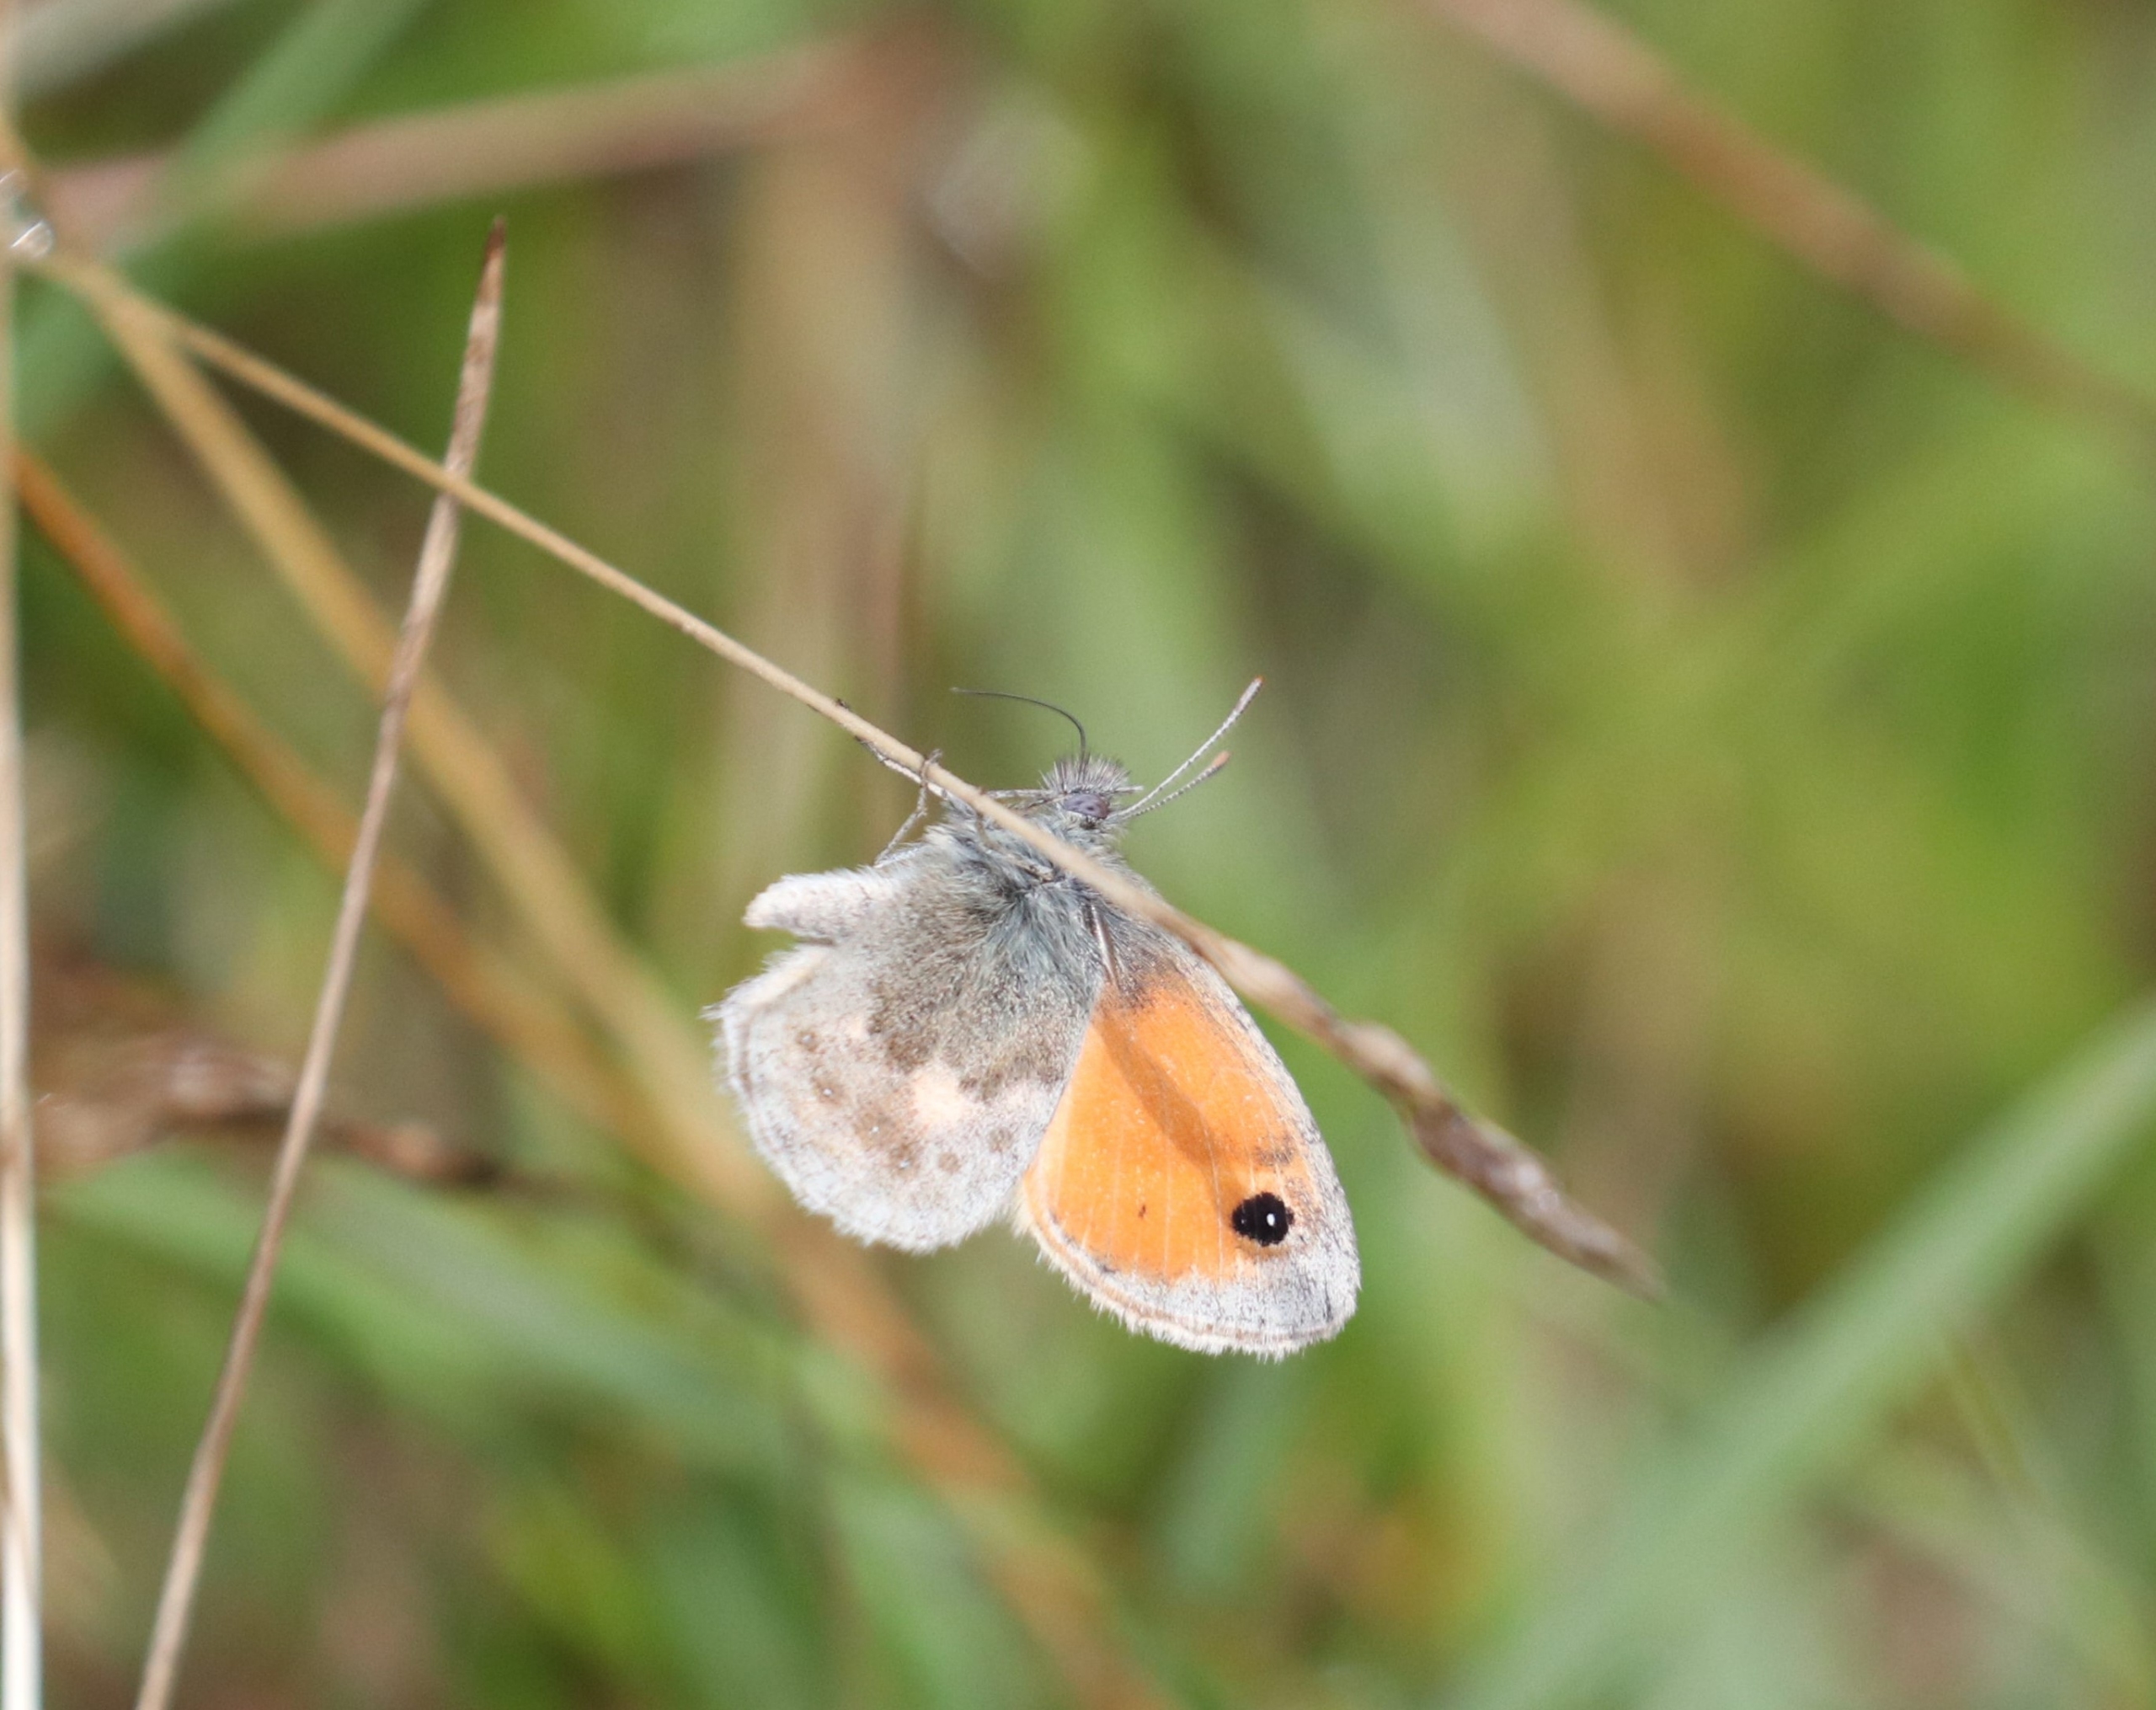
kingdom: Animalia
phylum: Arthropoda
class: Insecta
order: Lepidoptera
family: Nymphalidae
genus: Coenonympha
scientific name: Coenonympha pamphilus
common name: Okkergul randøje
